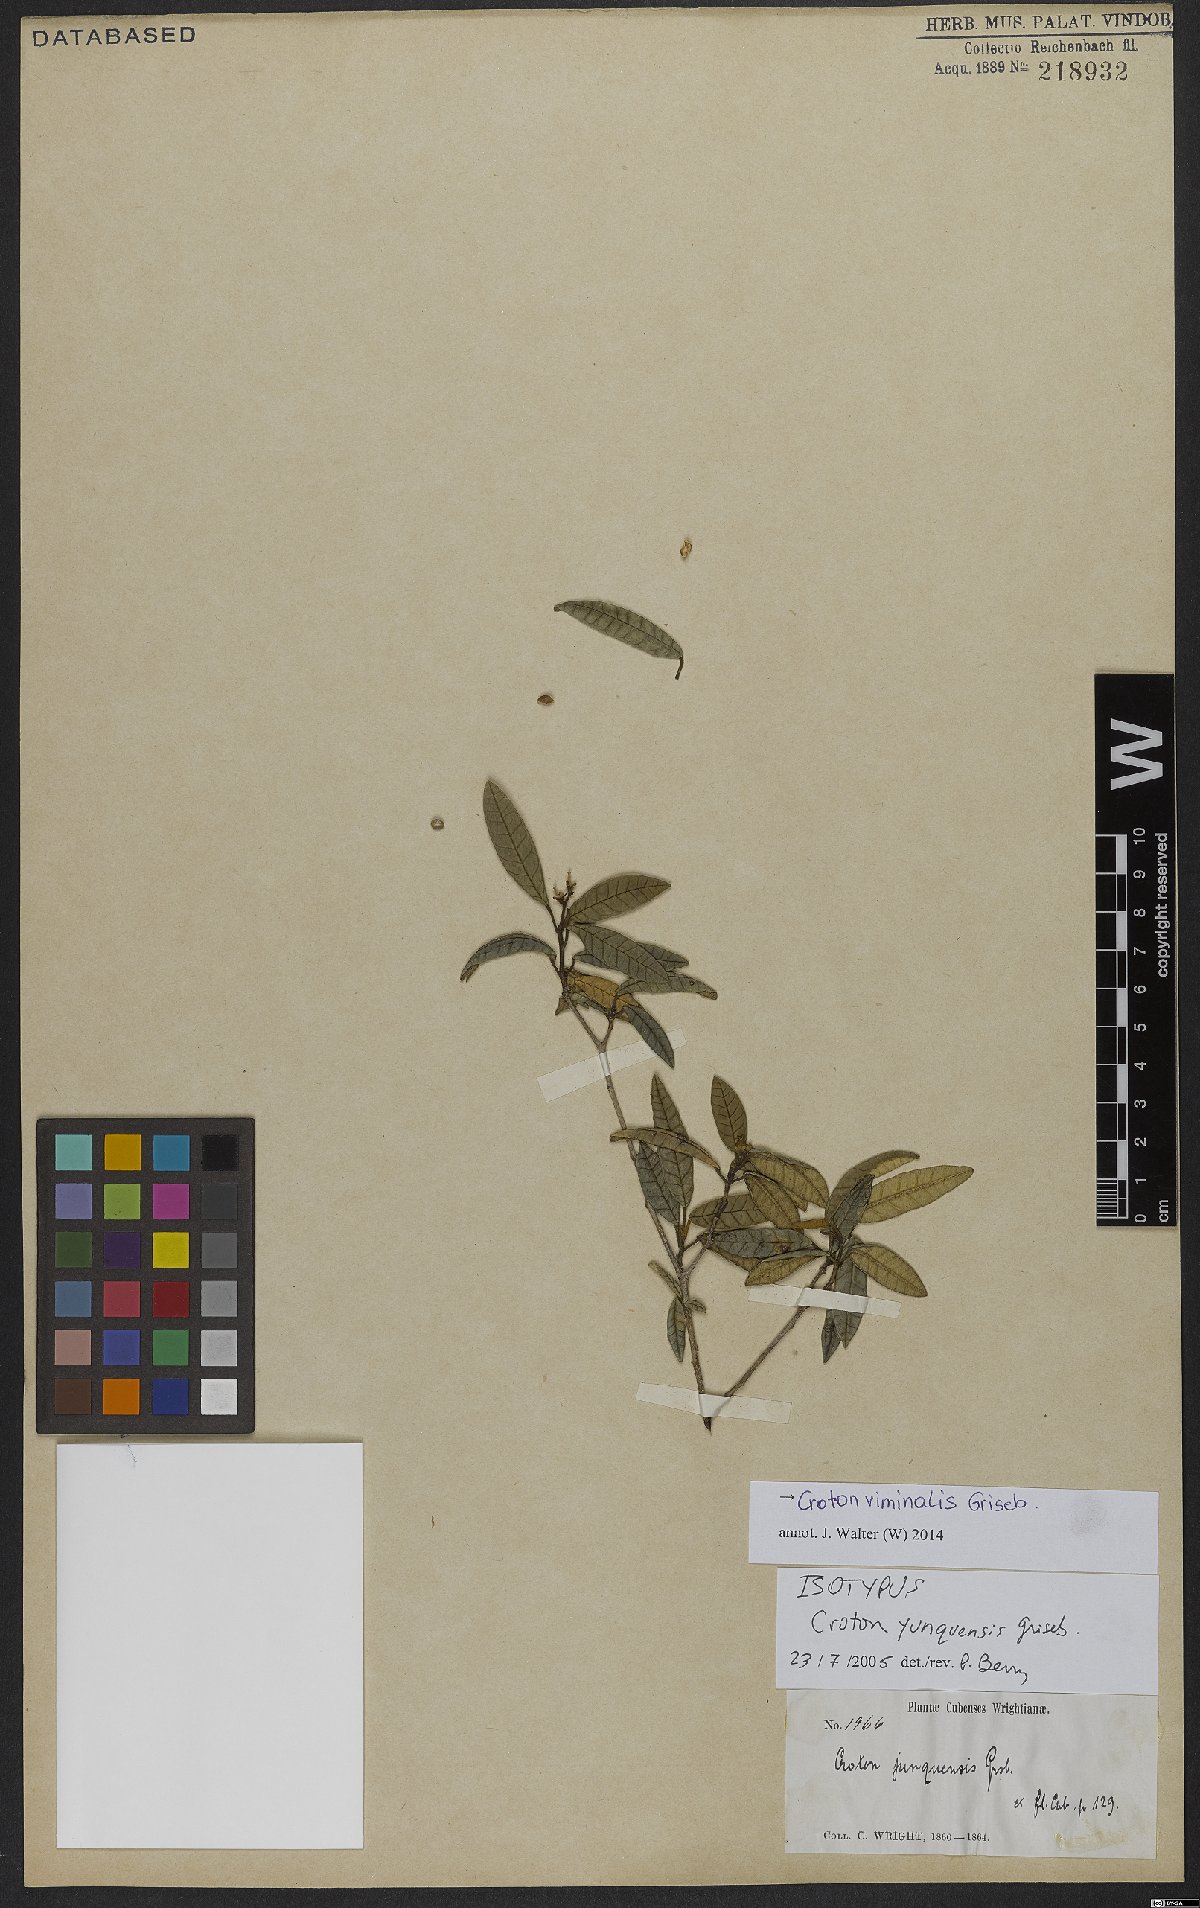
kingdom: Plantae
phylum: Tracheophyta
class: Magnoliopsida
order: Malpighiales
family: Euphorbiaceae
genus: Croton
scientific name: Croton viminalis
